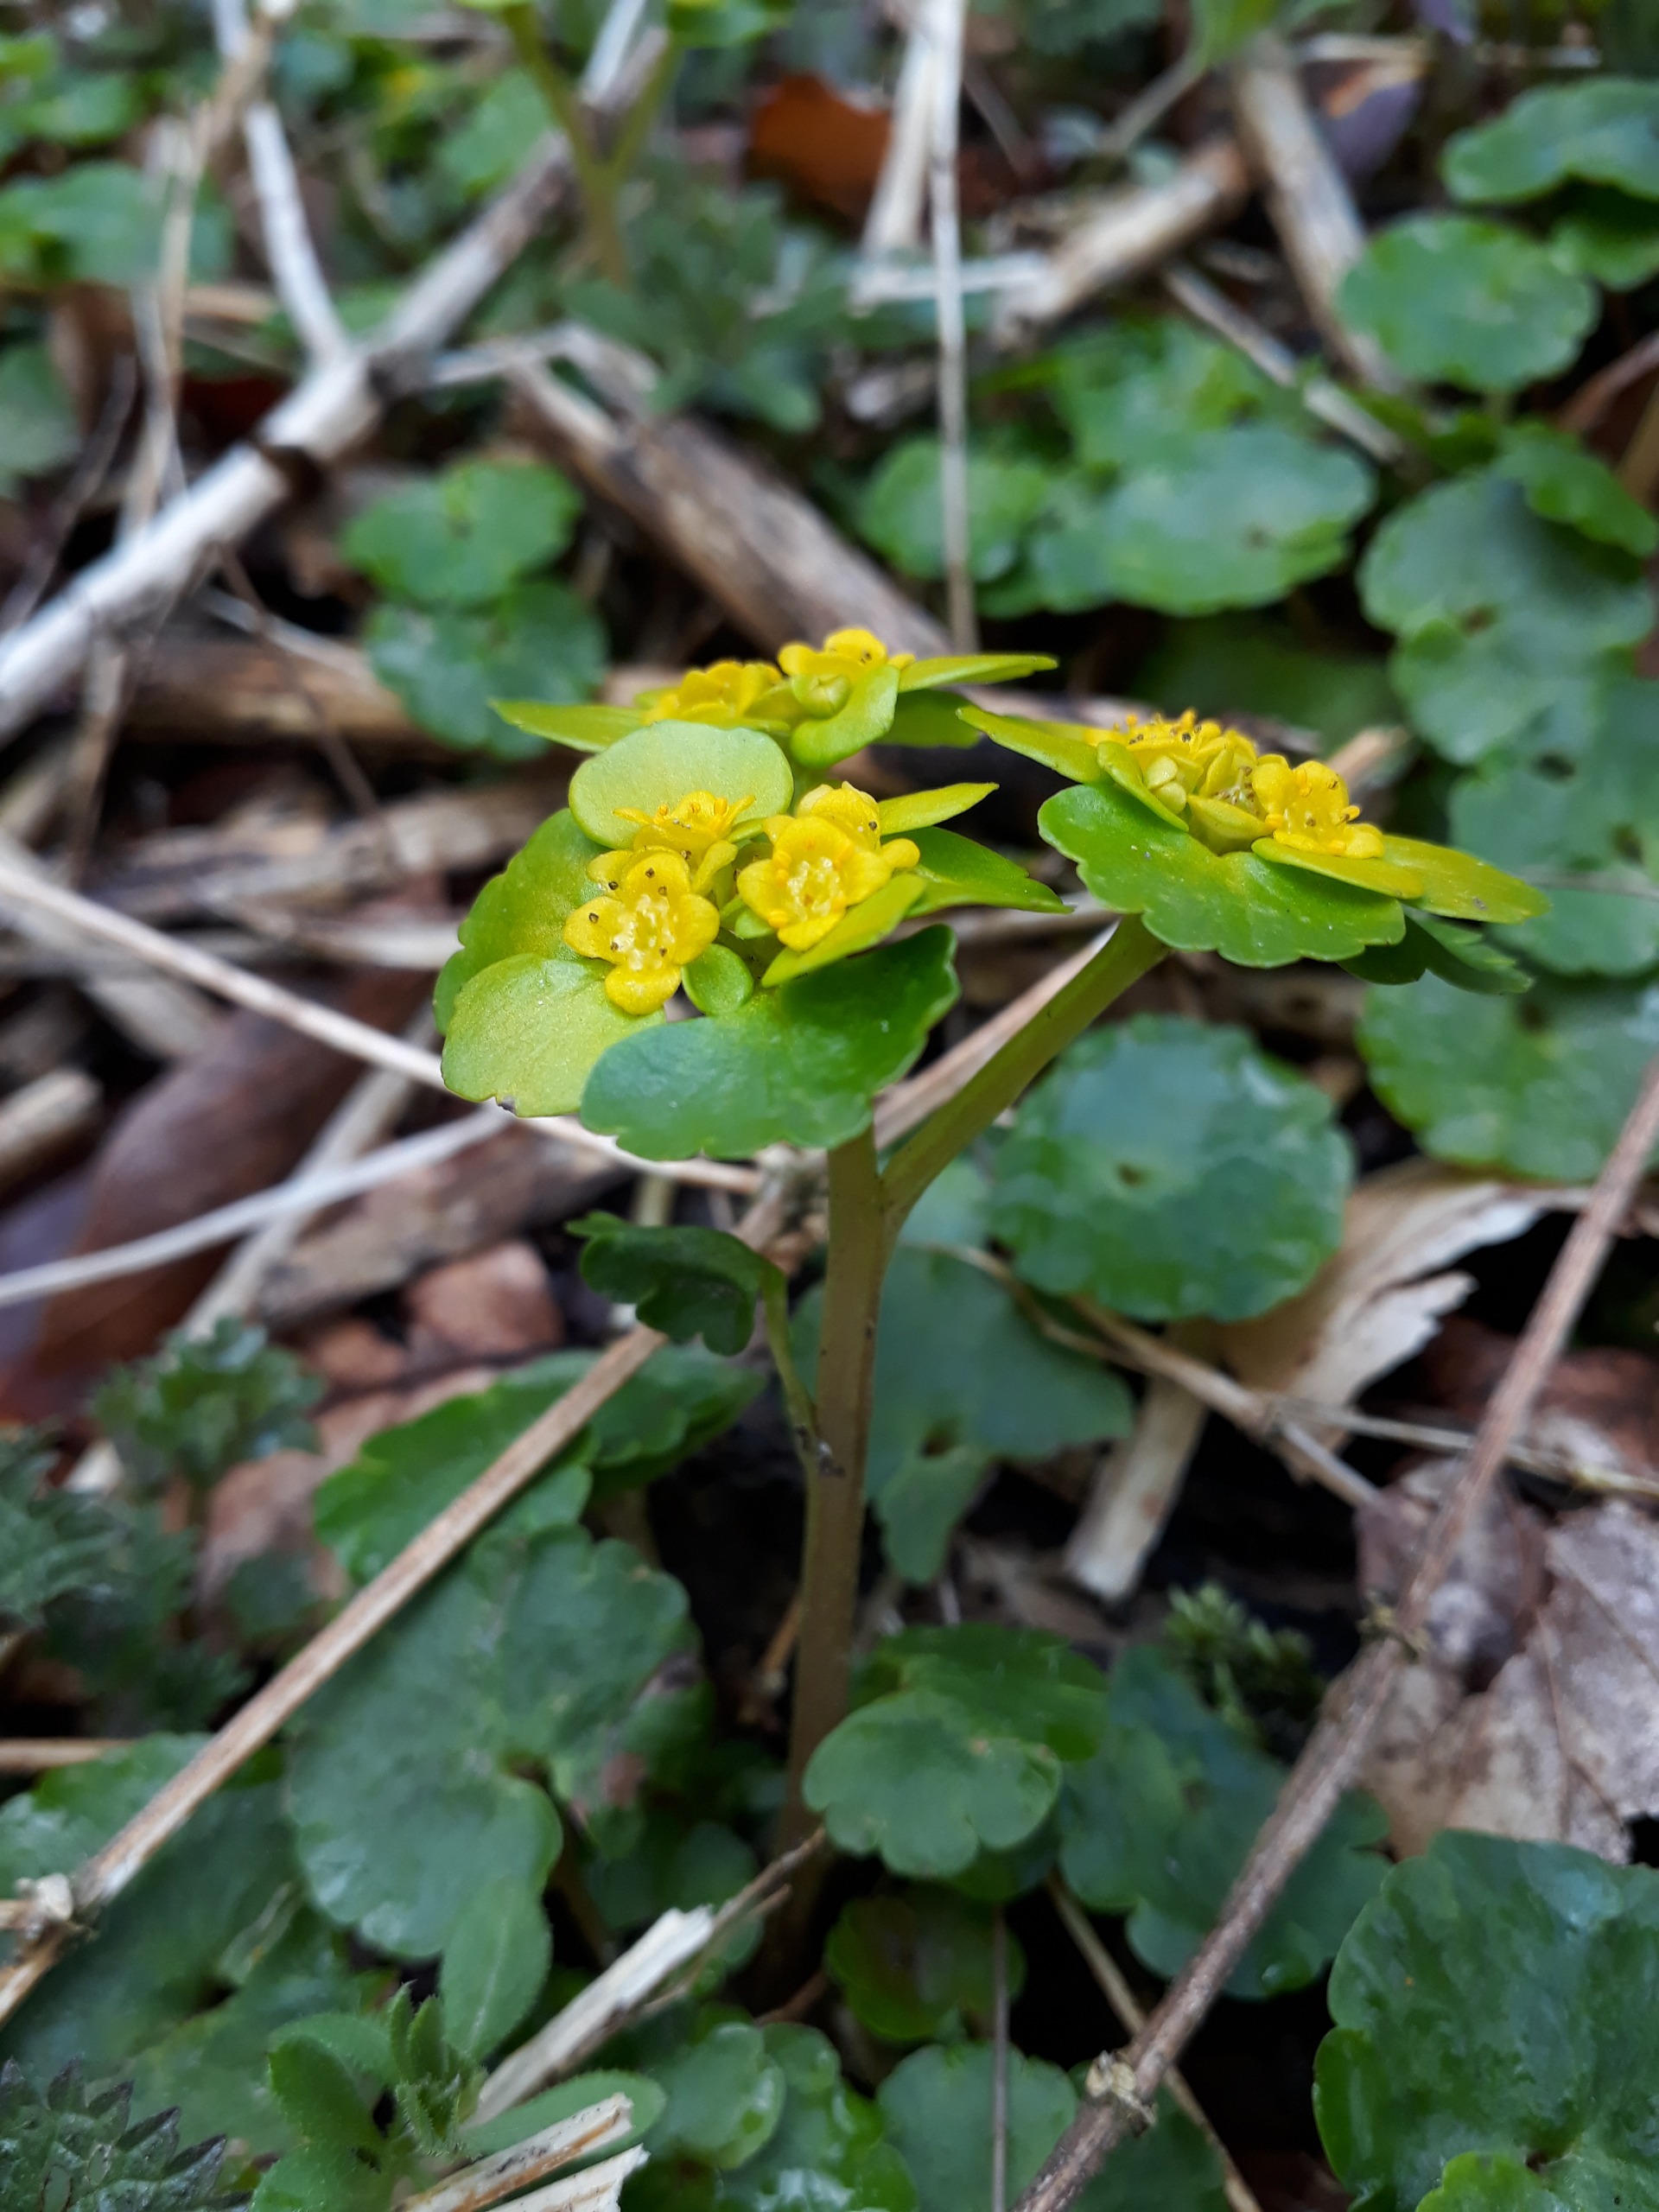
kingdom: Plantae
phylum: Tracheophyta
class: Magnoliopsida
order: Saxifragales
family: Saxifragaceae
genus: Chrysosplenium
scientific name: Chrysosplenium alternifolium
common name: Almindelig milturt
